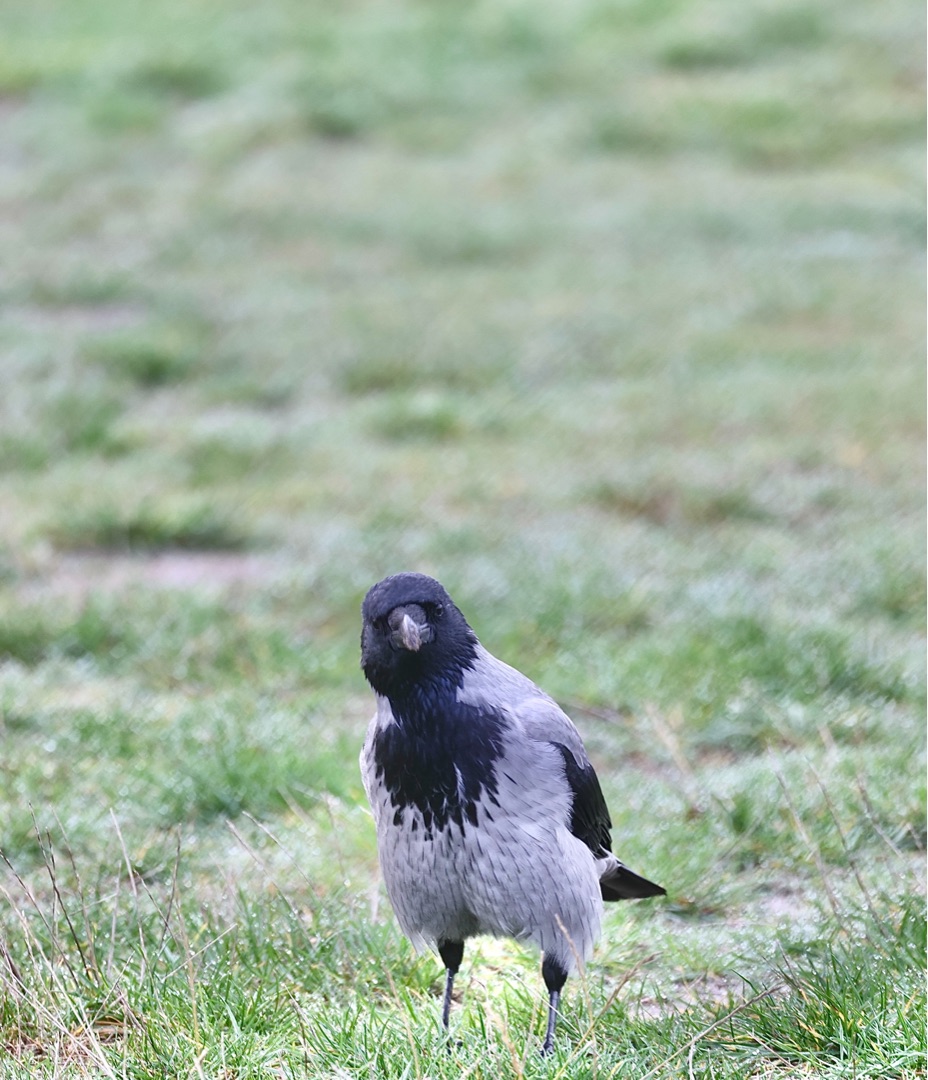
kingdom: Animalia
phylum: Chordata
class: Aves
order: Passeriformes
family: Corvidae
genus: Corvus
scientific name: Corvus cornix
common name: Gråkrage
